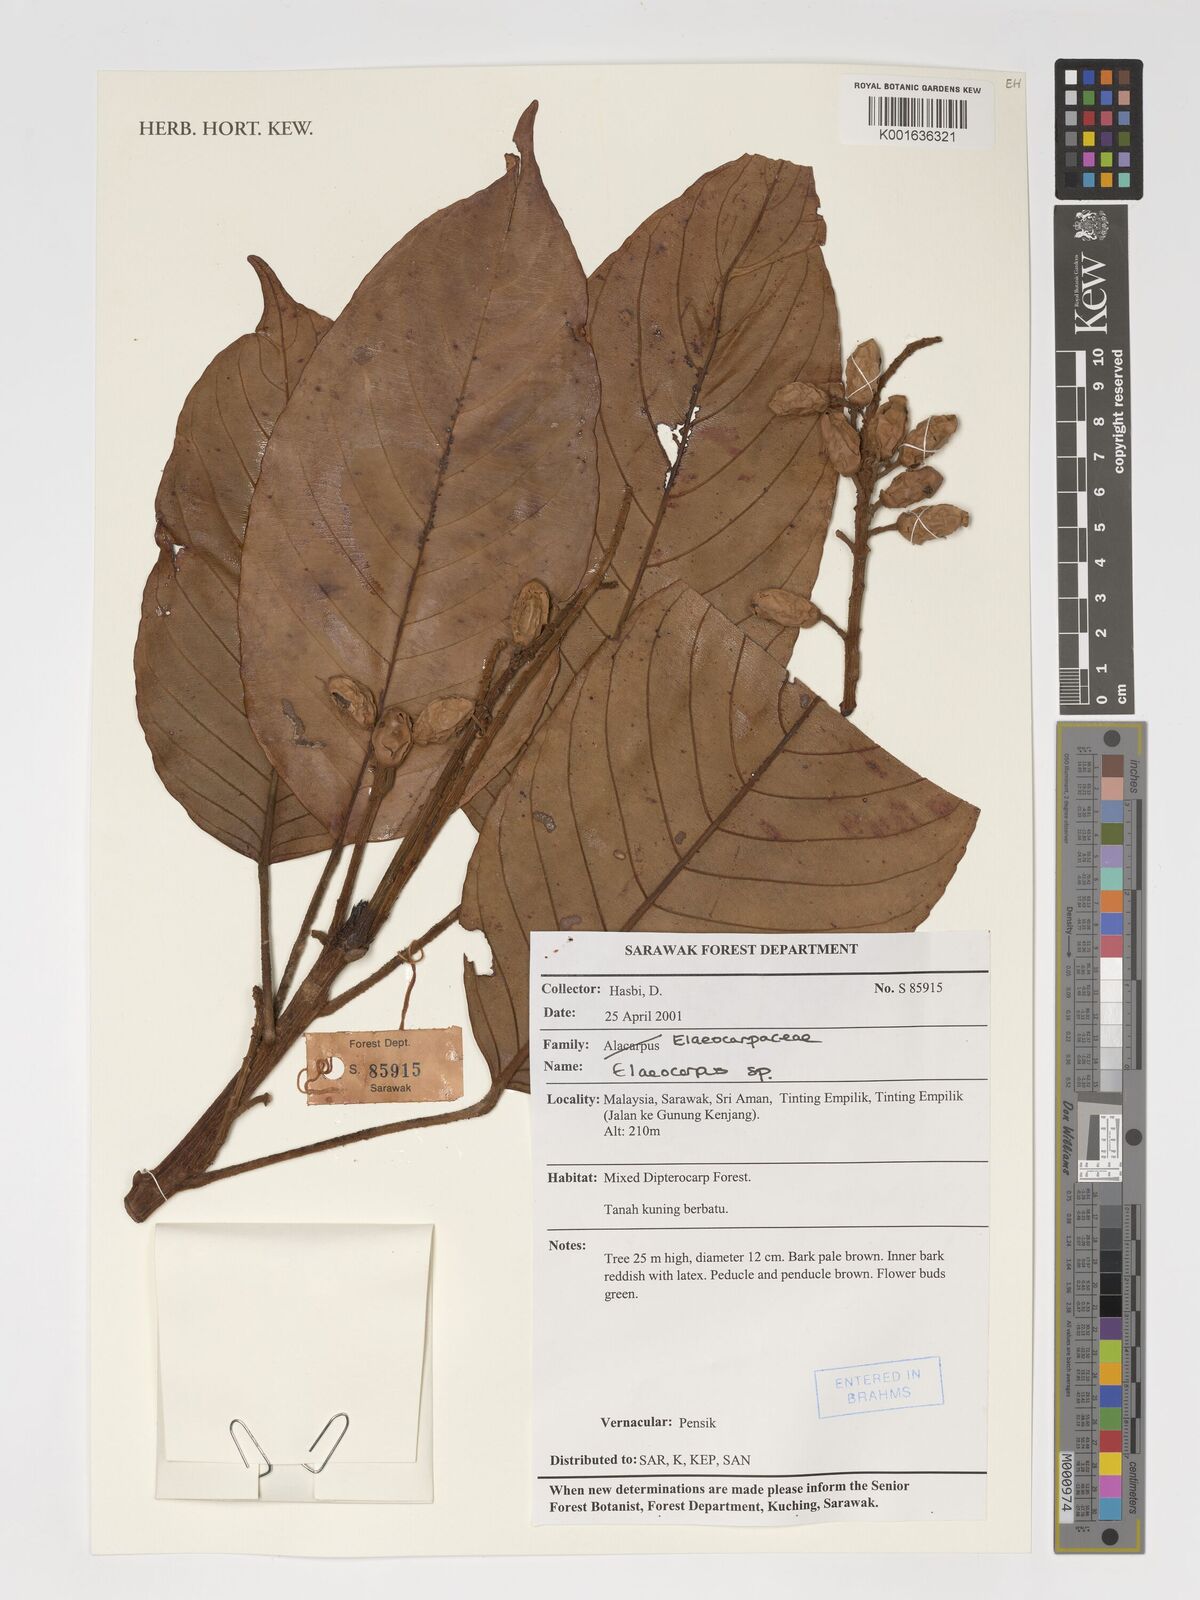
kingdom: Plantae
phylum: Tracheophyta
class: Magnoliopsida
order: Oxalidales
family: Elaeocarpaceae
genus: Elaeocarpus
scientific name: Elaeocarpus
